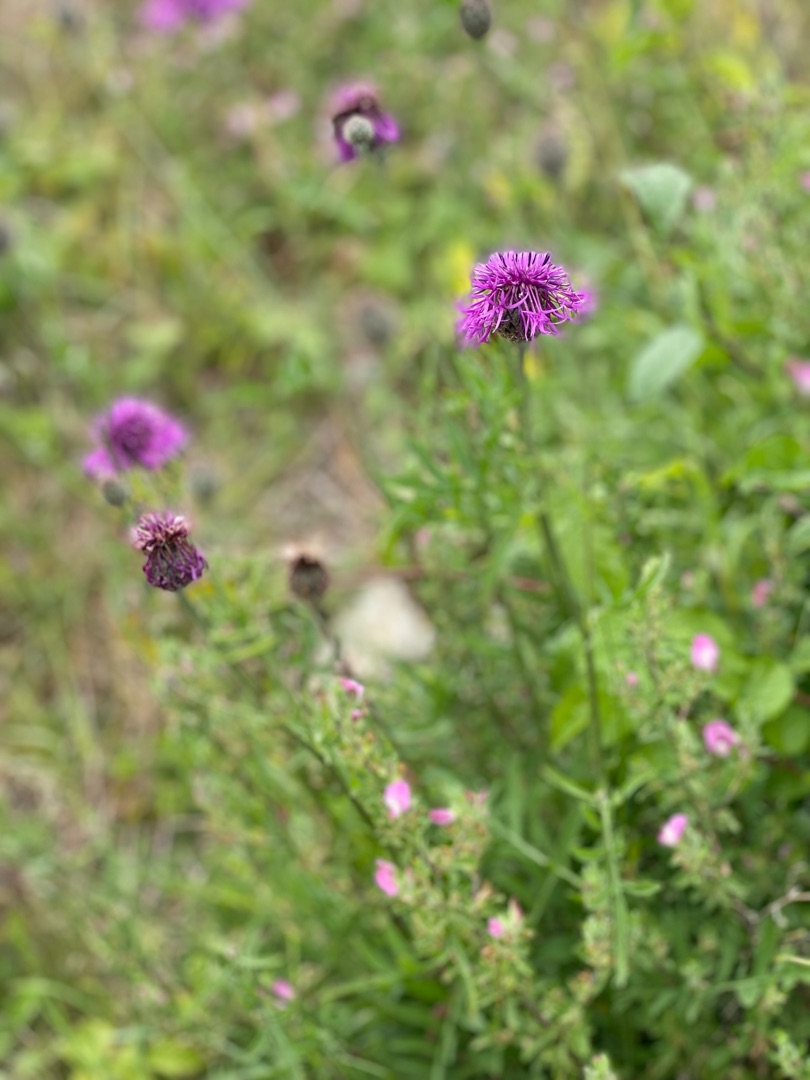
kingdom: Plantae
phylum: Tracheophyta
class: Magnoliopsida
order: Asterales
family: Asteraceae
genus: Centaurea
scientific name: Centaurea scabiosa
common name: Stor knopurt
